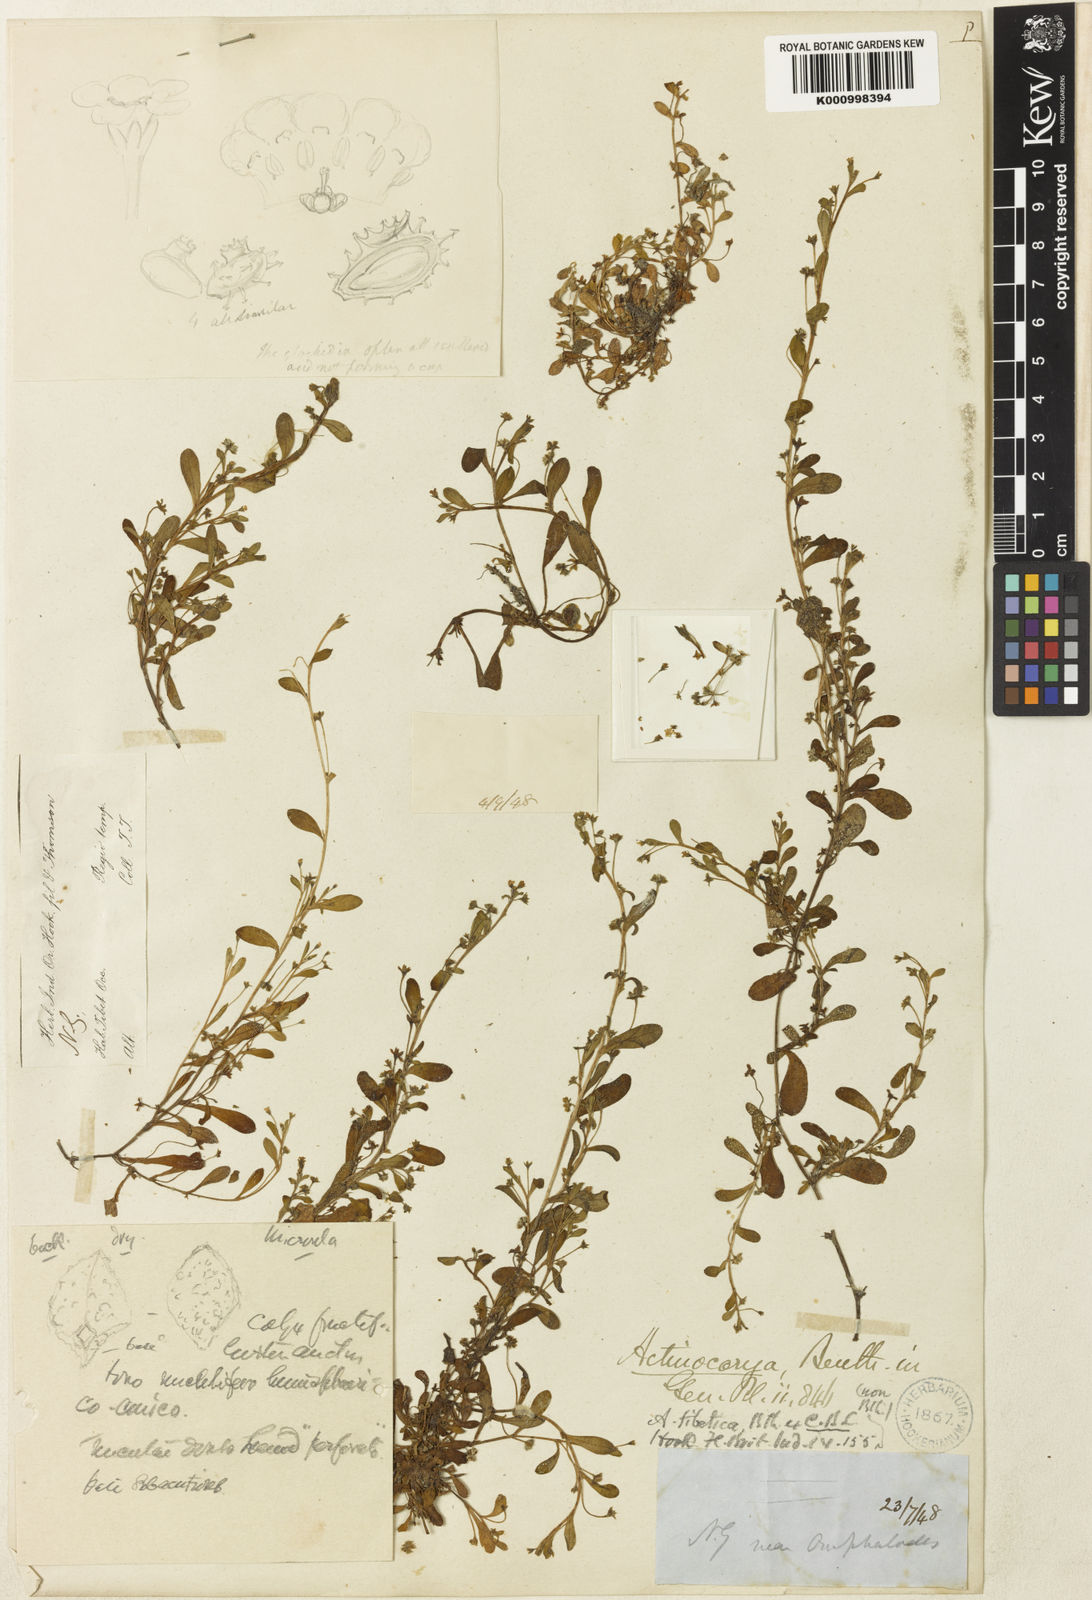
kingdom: Plantae
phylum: Tracheophyta
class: Magnoliopsida
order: Boraginales
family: Boraginaceae
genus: Actinocarya
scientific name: Actinocarya
